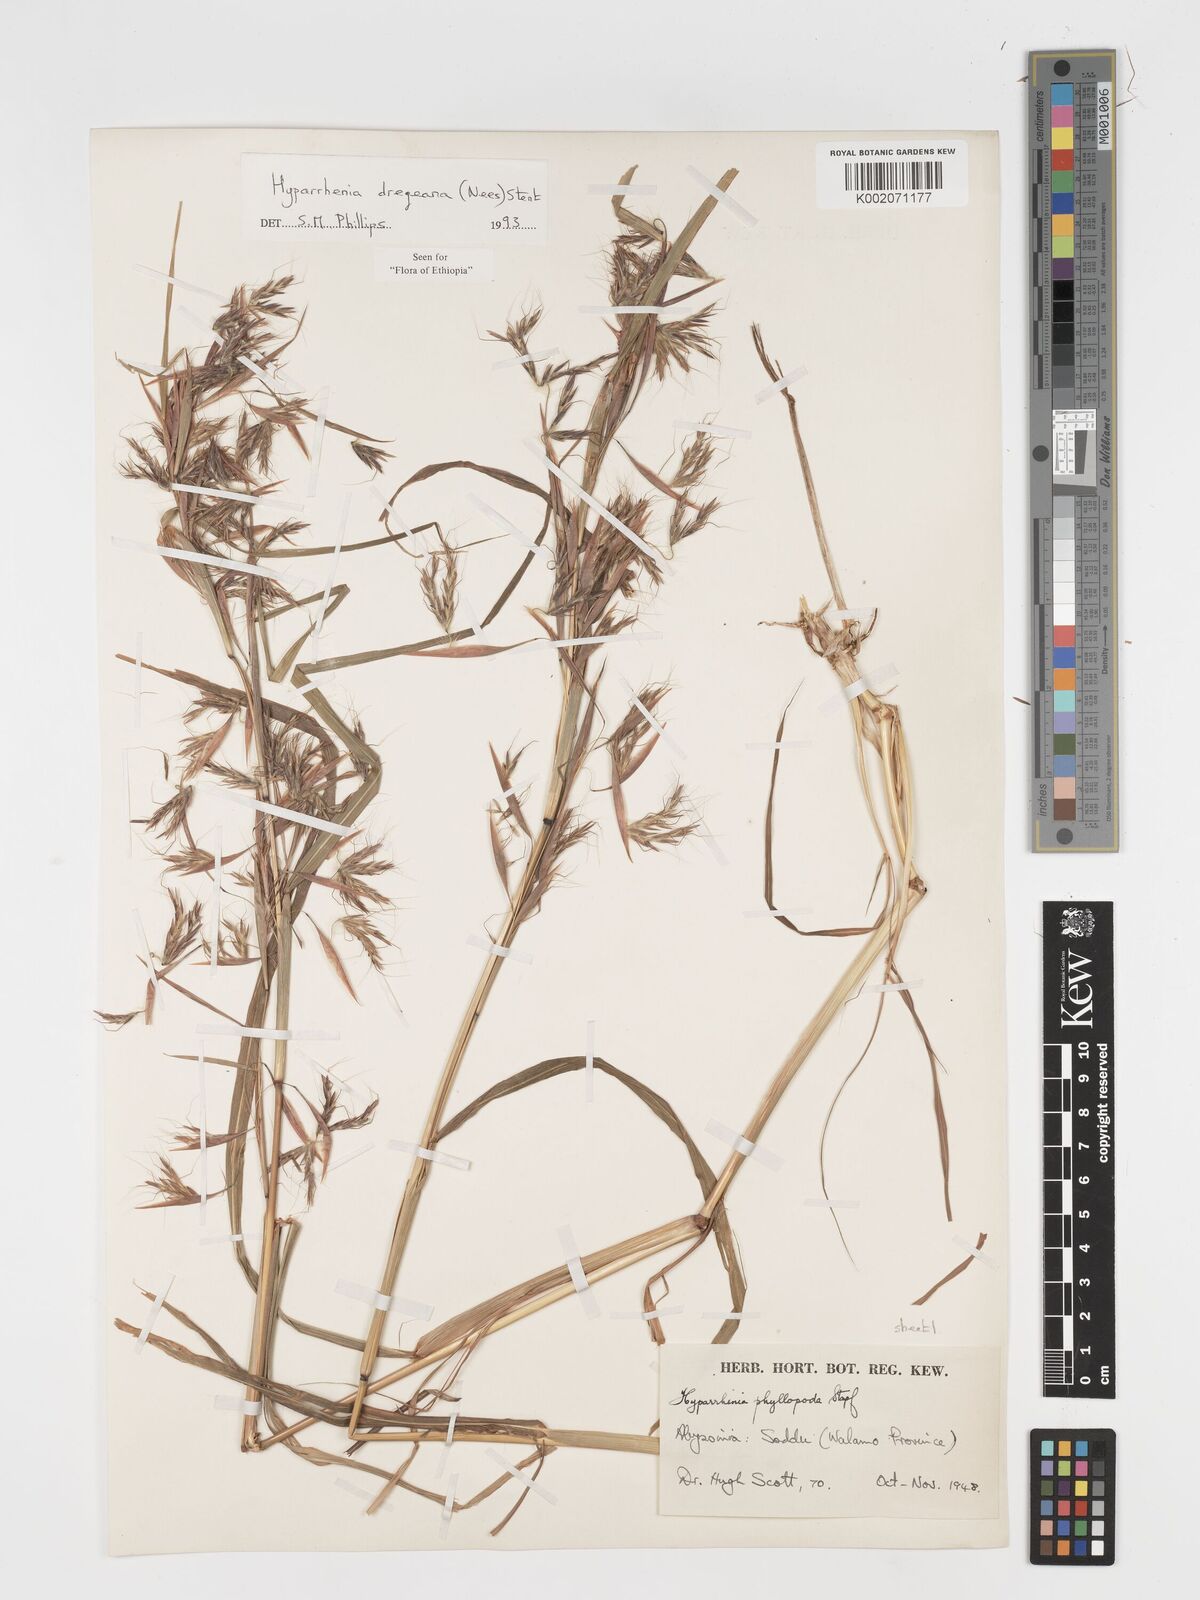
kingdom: Plantae
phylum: Tracheophyta
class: Liliopsida
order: Poales
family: Poaceae
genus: Hyparrhenia
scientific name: Hyparrhenia dregeana
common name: Silky thatching grass
